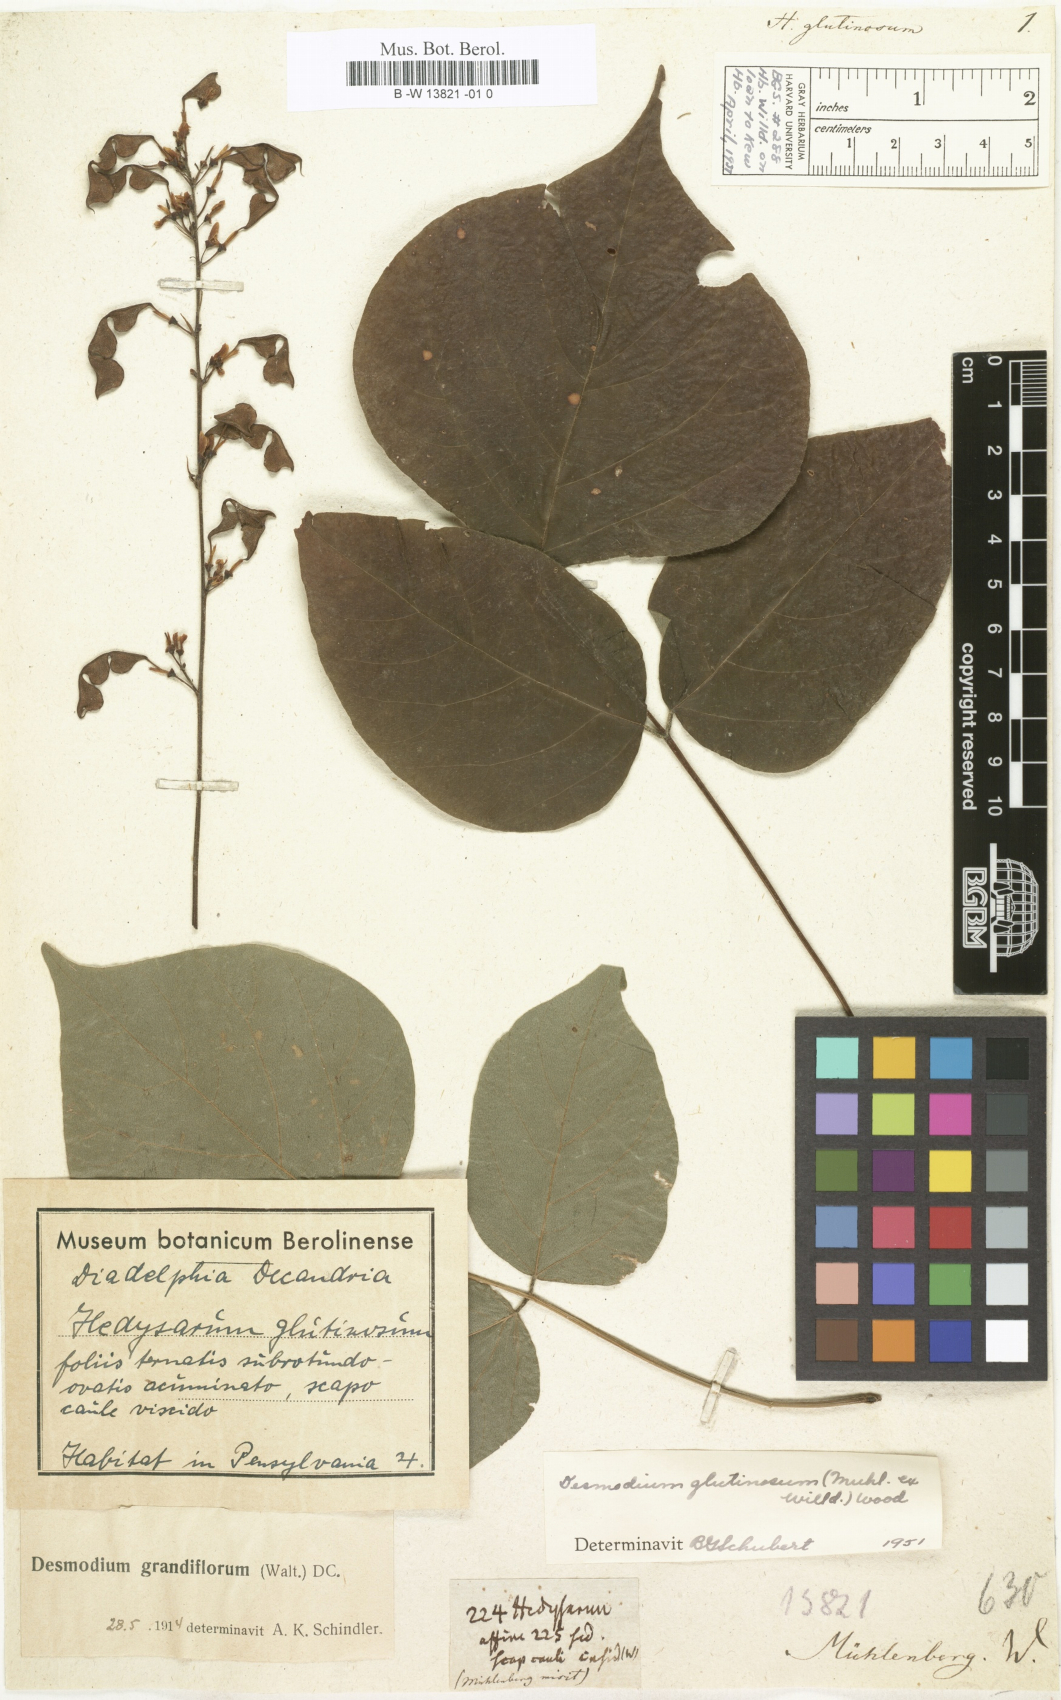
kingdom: Plantae
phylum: Tracheophyta
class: Magnoliopsida
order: Fabales
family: Fabaceae
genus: Rhynchosia
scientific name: Rhynchosia viscosa
